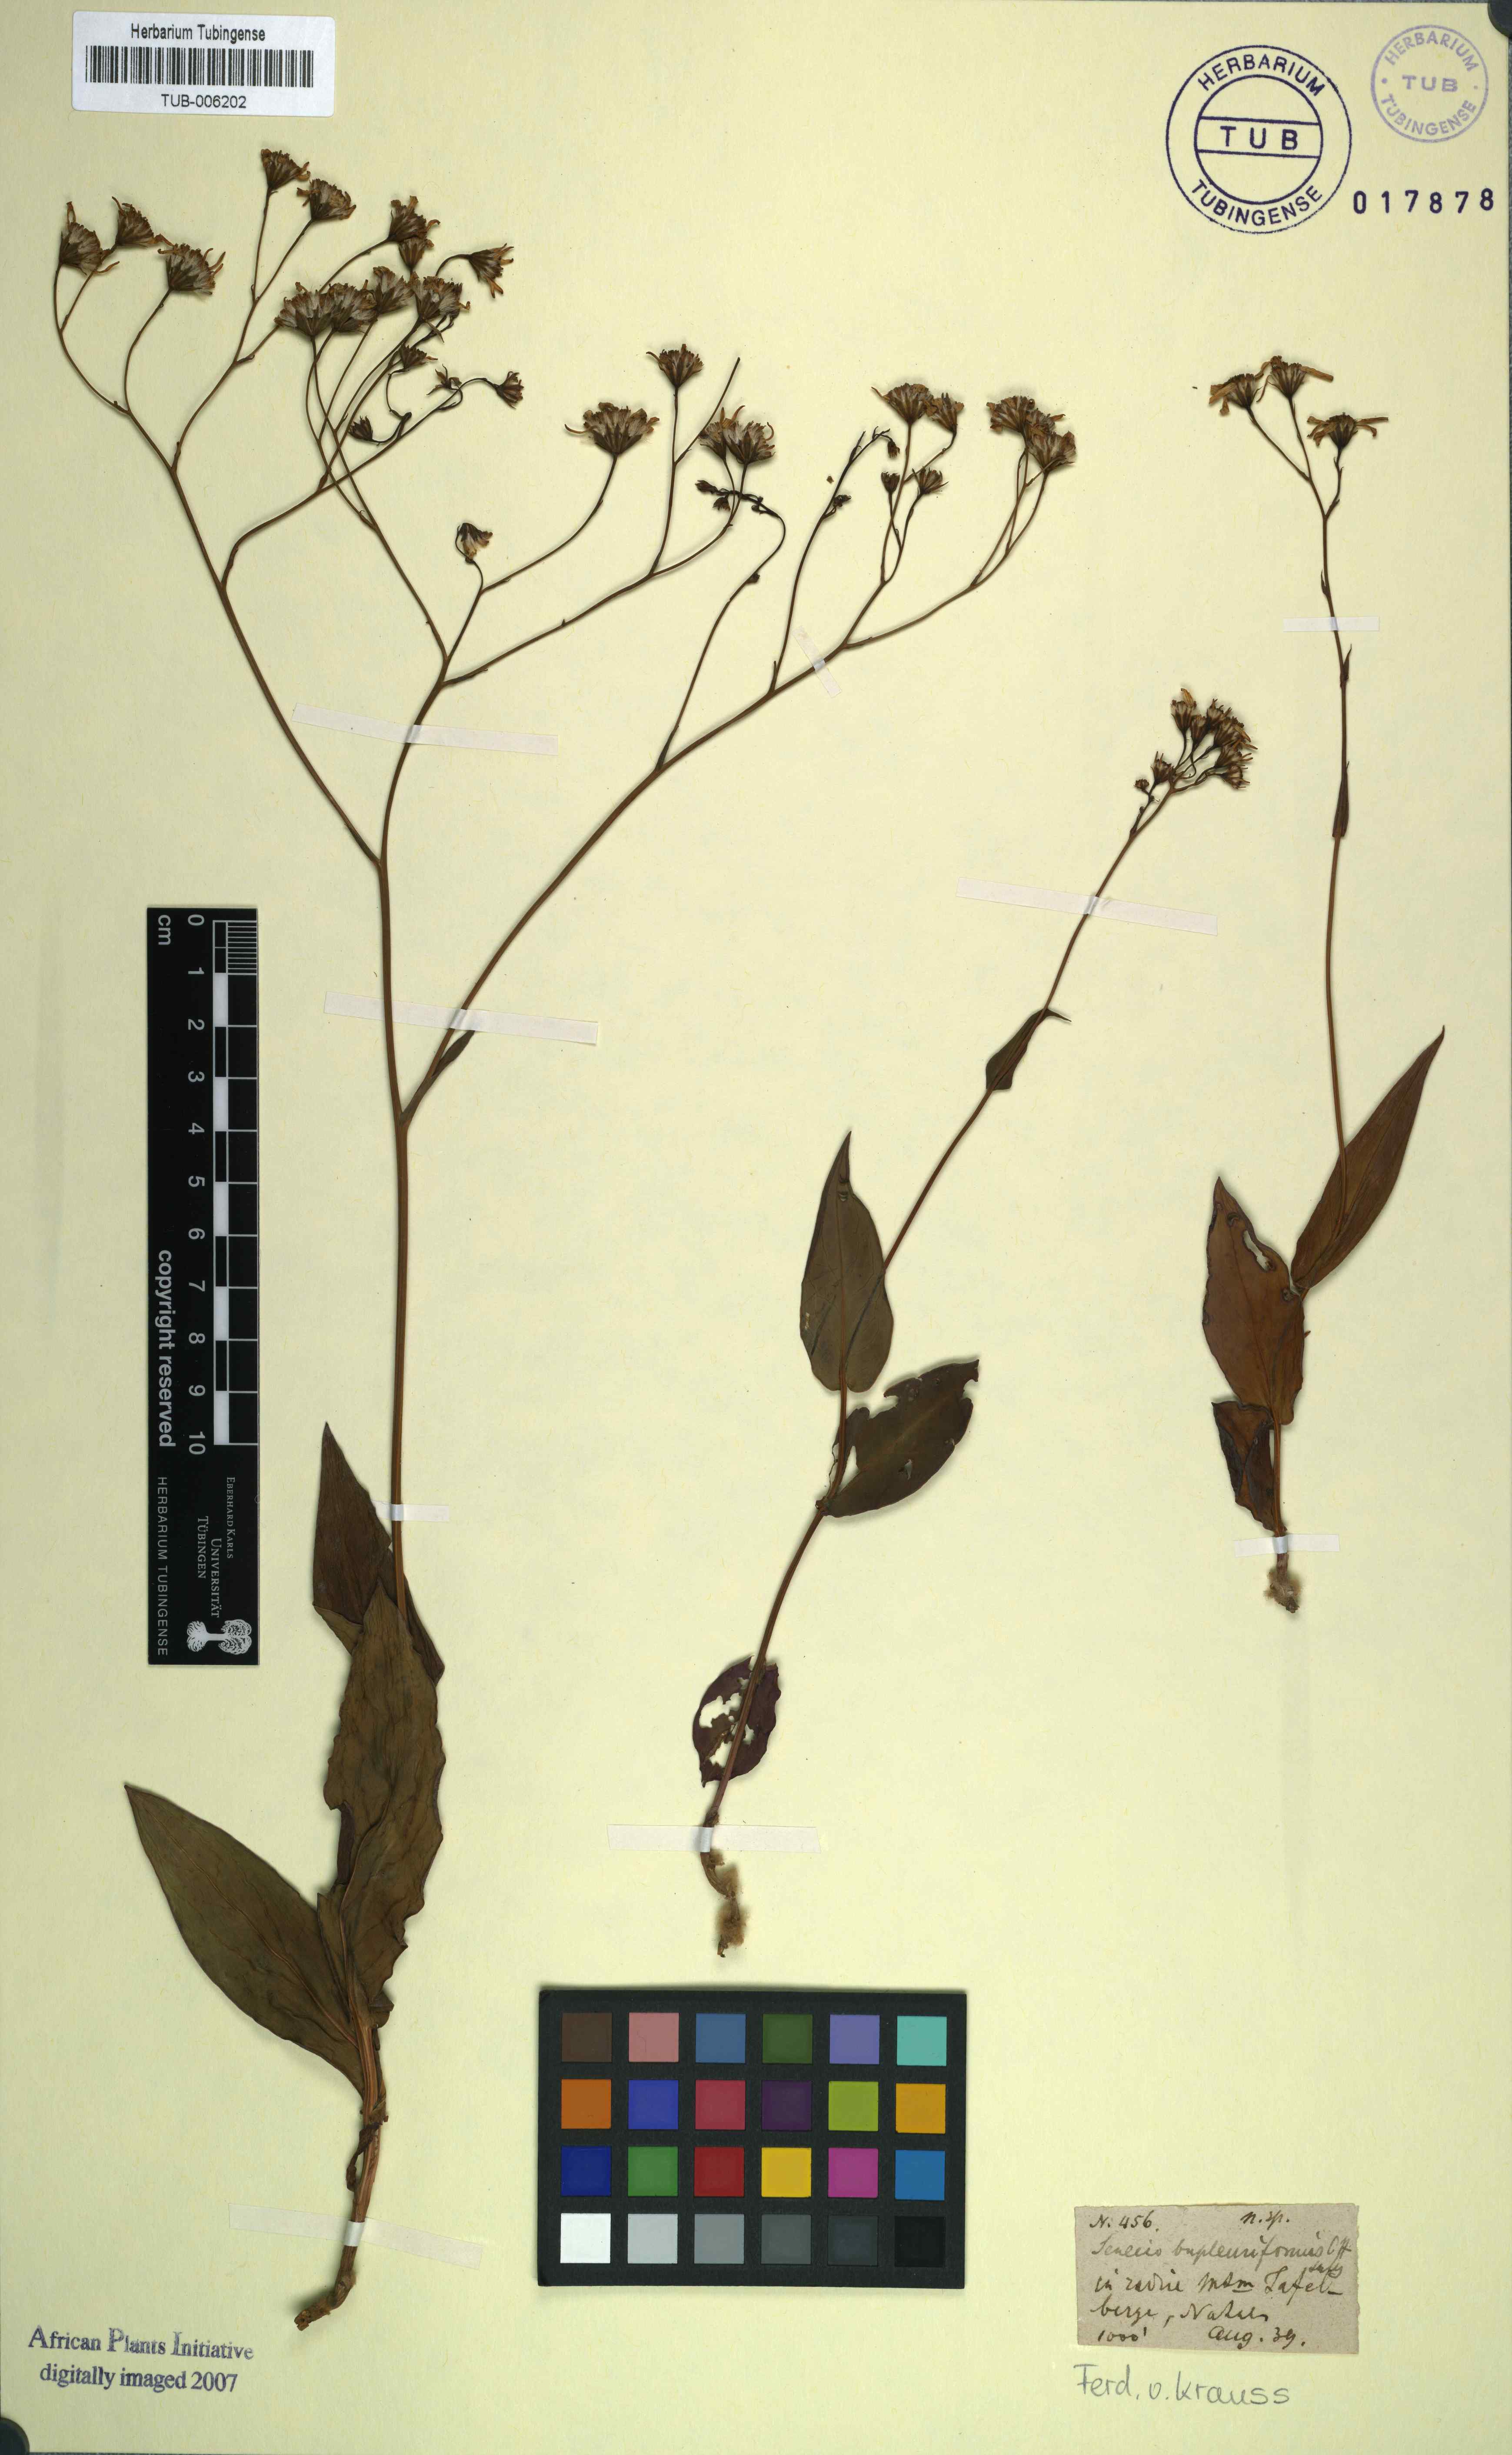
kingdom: Plantae
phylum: Tracheophyta
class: Magnoliopsida
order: Asterales
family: Asteraceae
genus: Senecio
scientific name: Senecio bupleuroides
